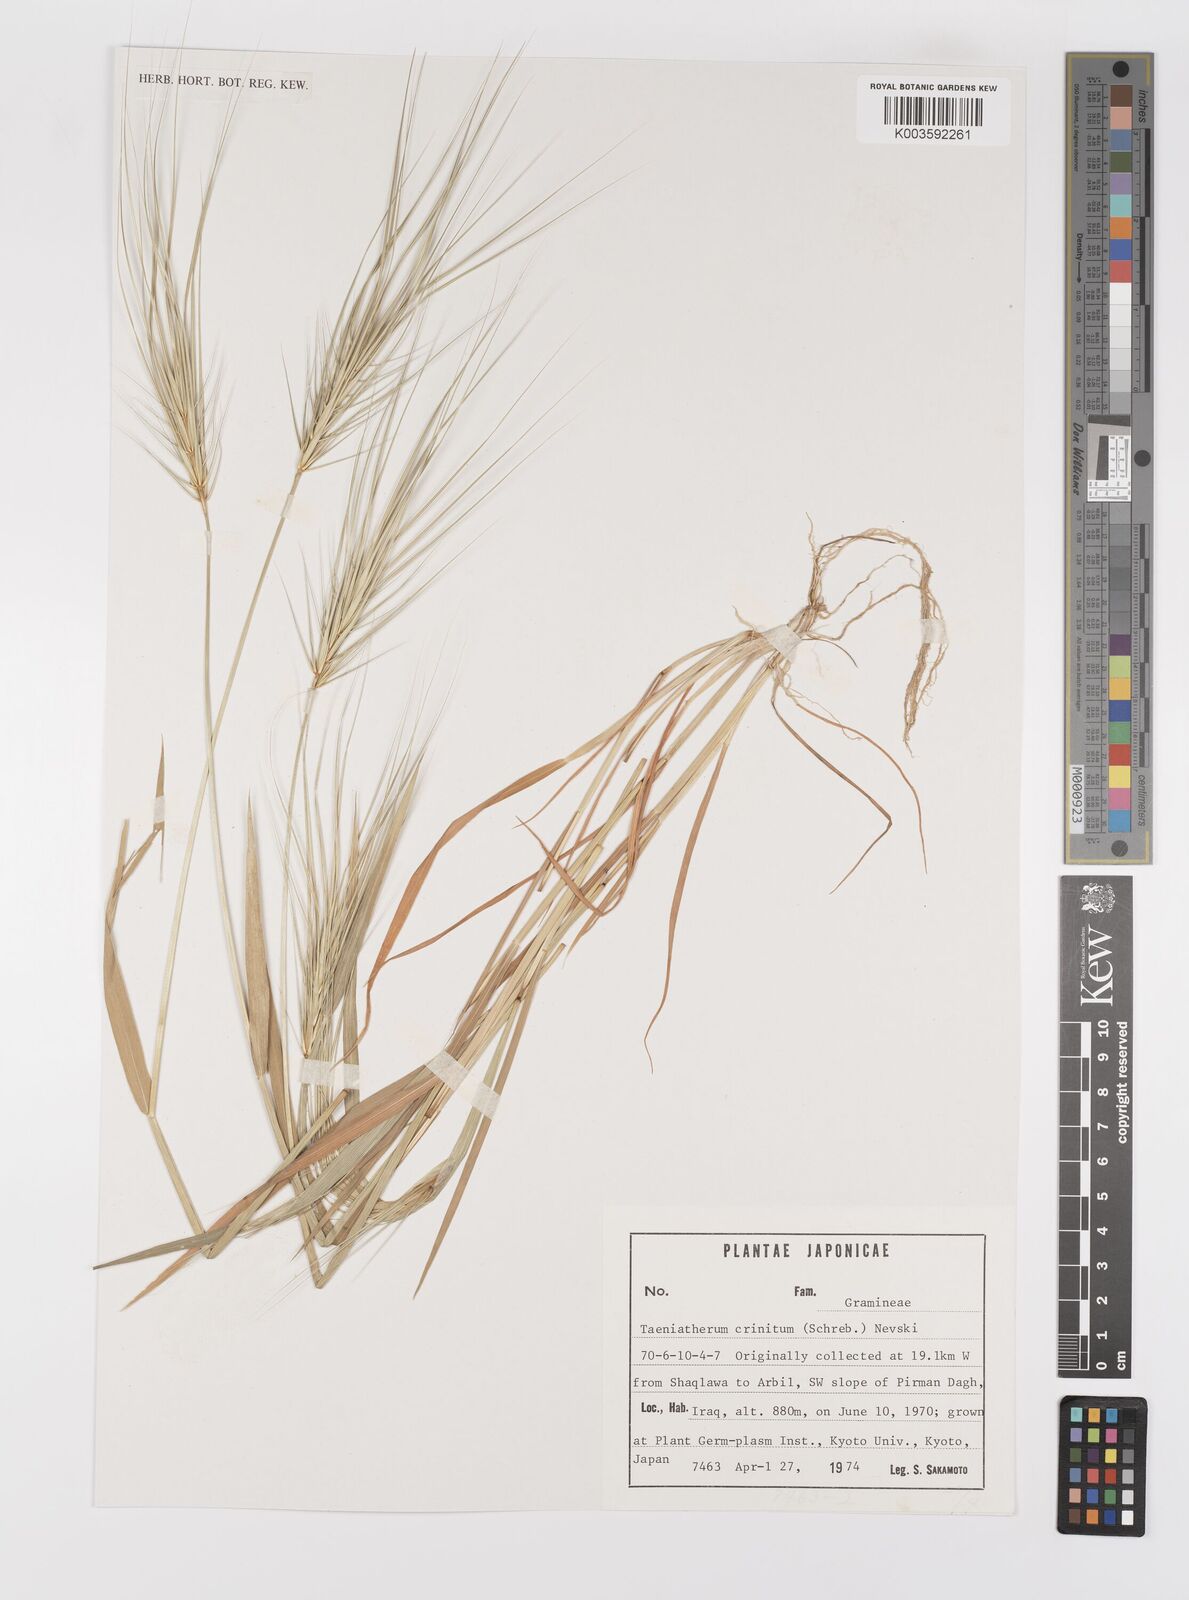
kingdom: Plantae
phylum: Tracheophyta
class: Liliopsida
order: Poales
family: Poaceae
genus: Taeniatherum
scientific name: Taeniatherum caput-medusae
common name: Medusahead
